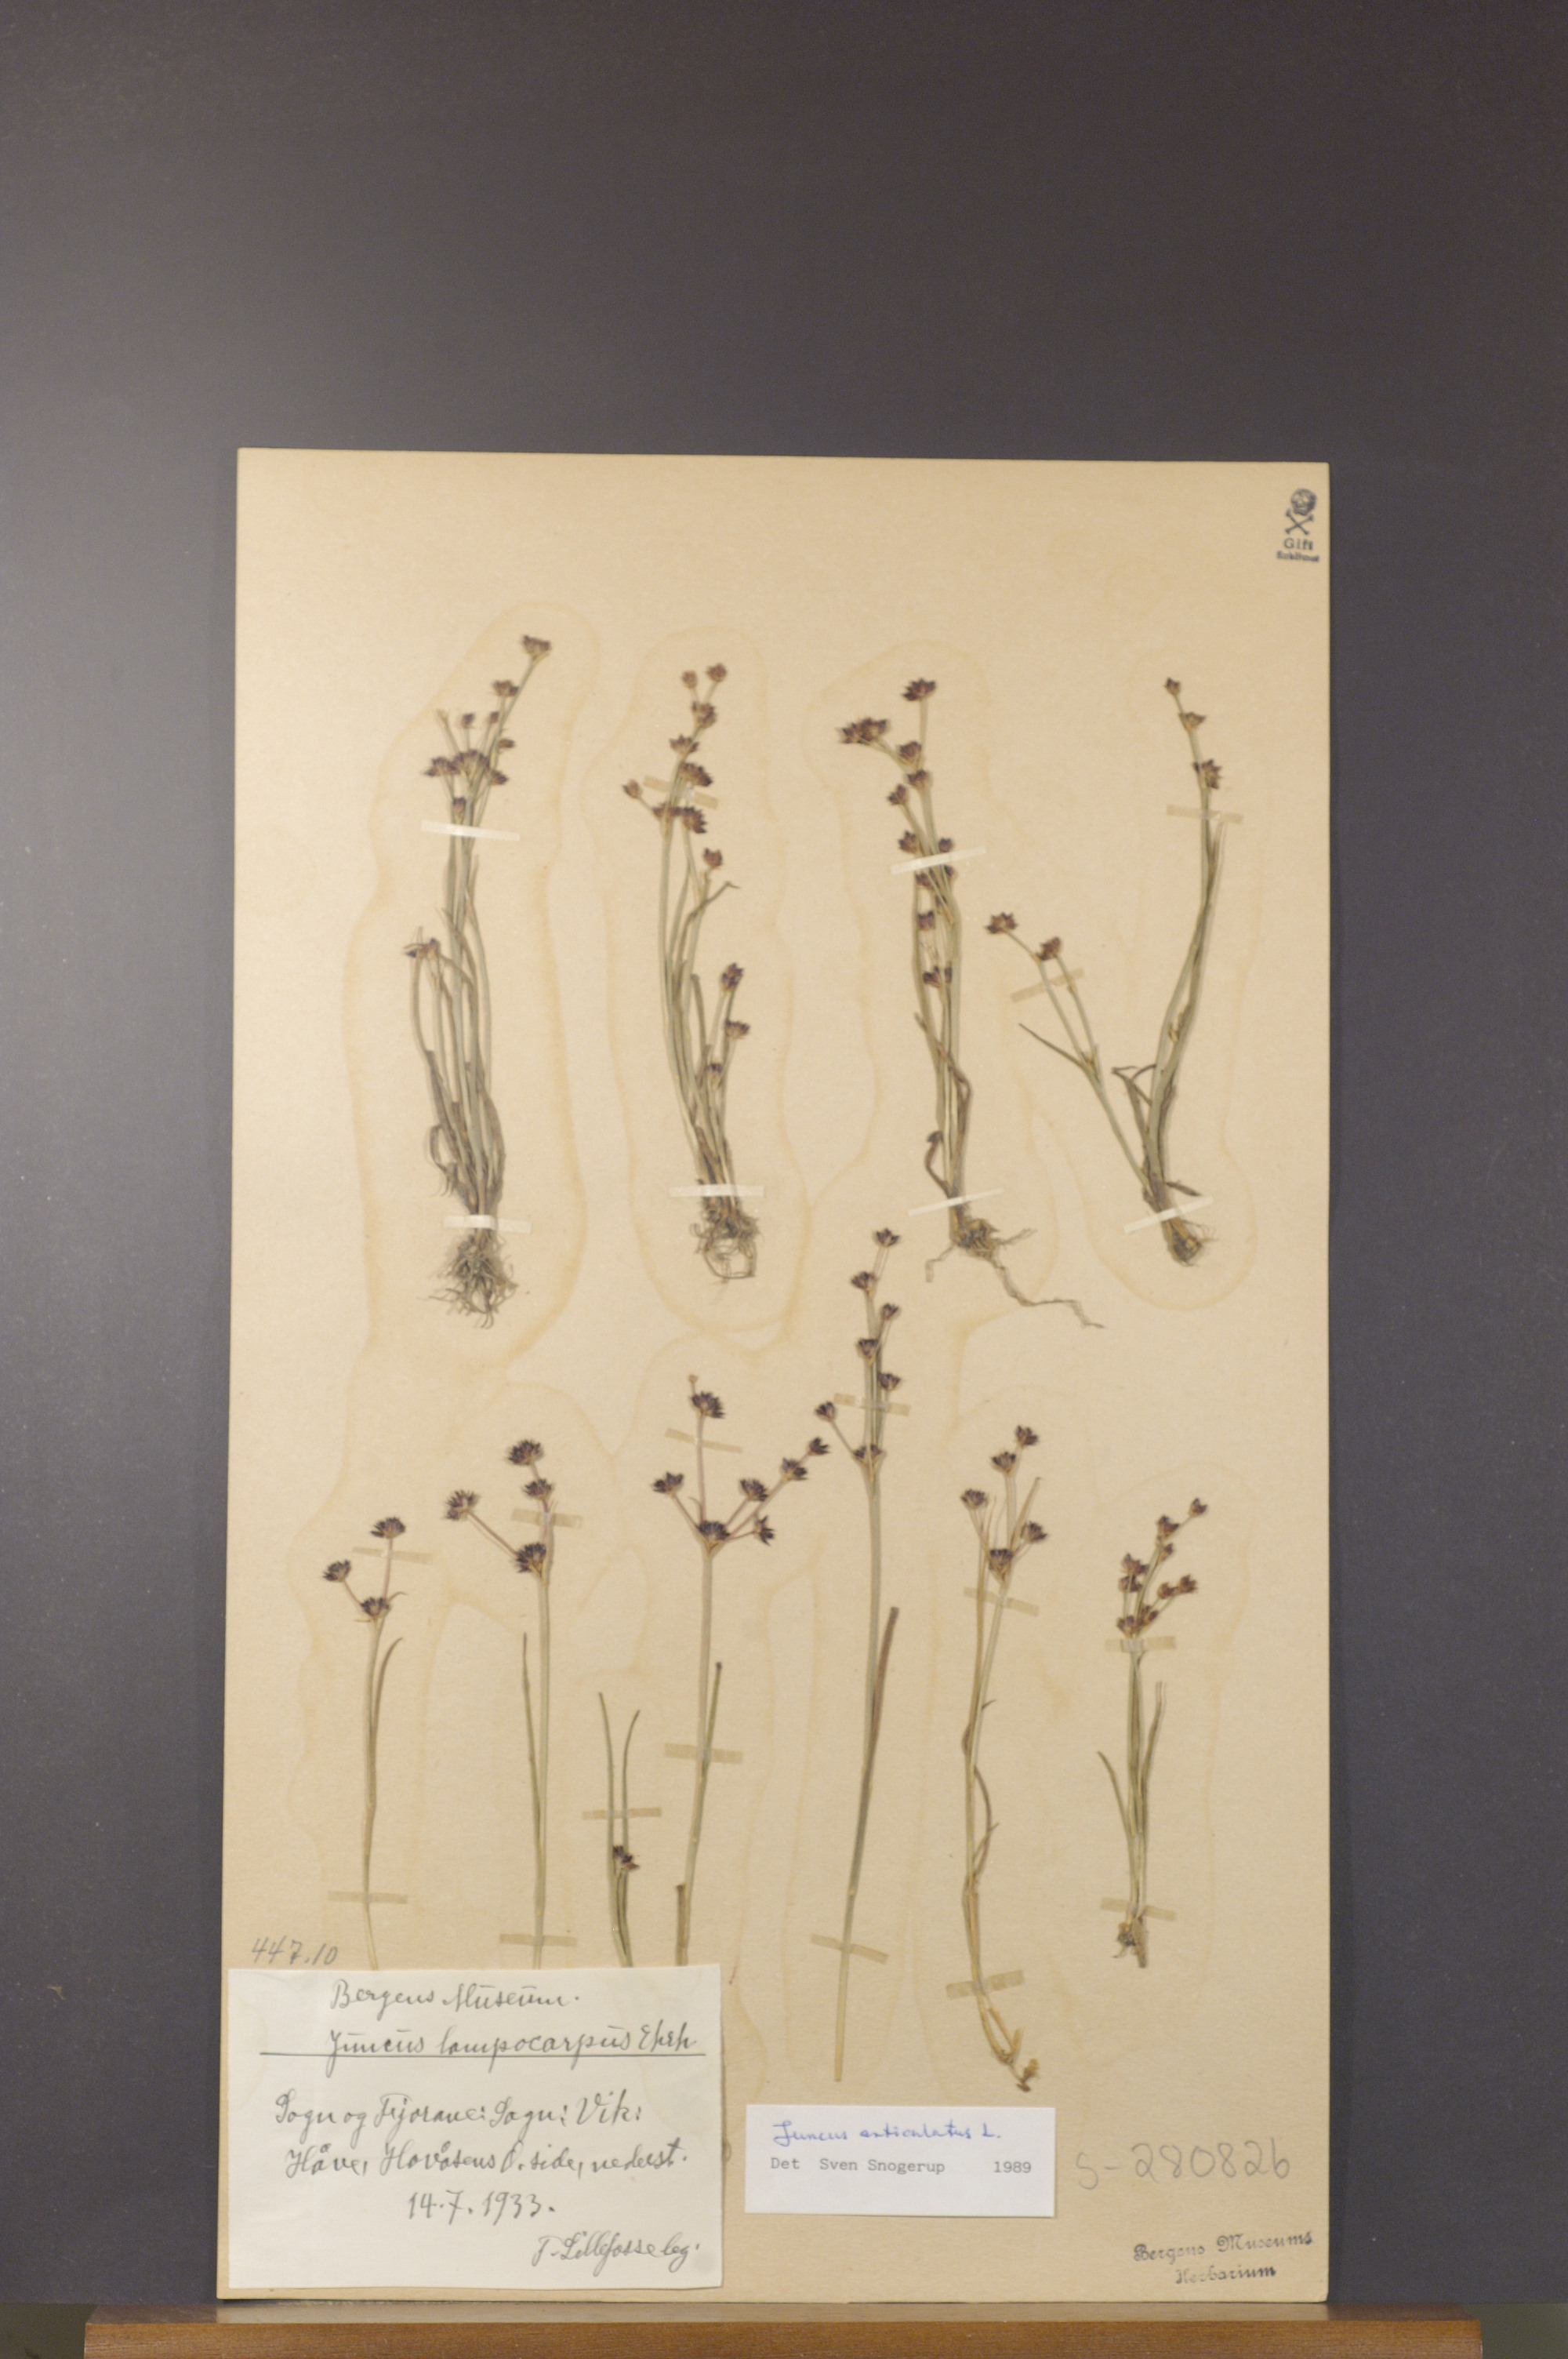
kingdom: Plantae
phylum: Tracheophyta
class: Liliopsida
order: Poales
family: Juncaceae
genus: Juncus
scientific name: Juncus articulatus
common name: Jointed rush
